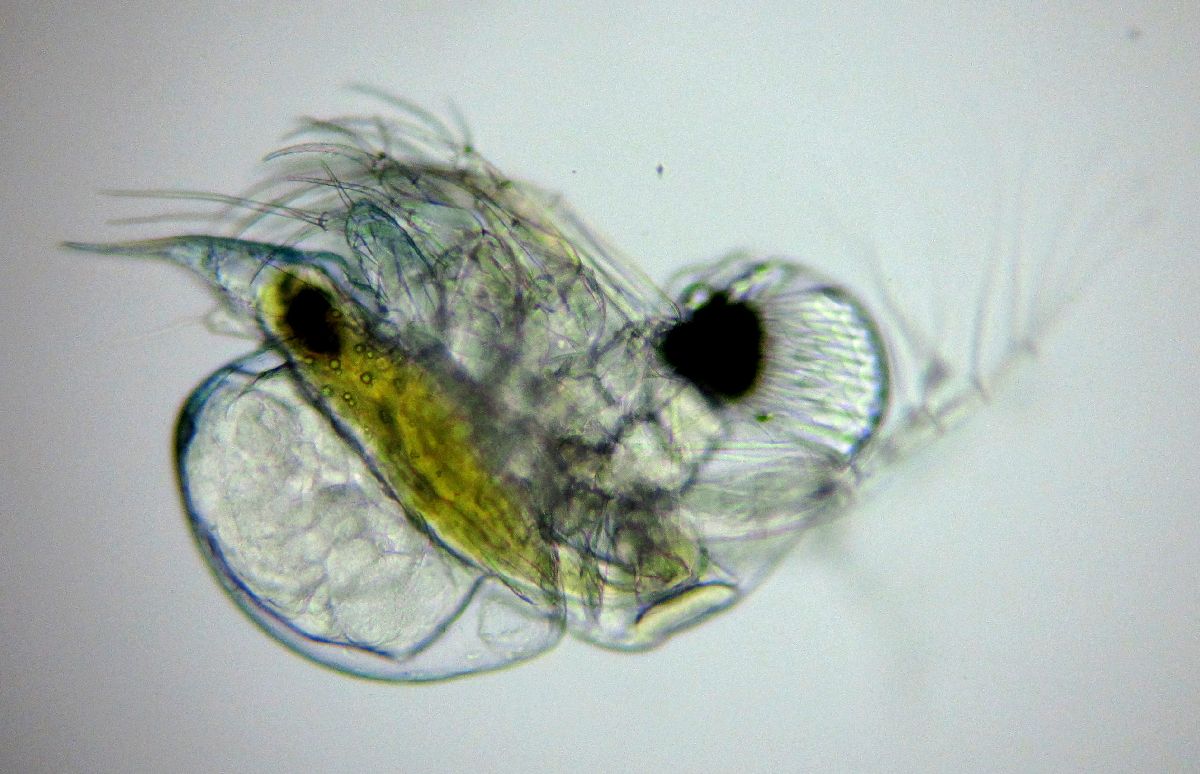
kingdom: Animalia
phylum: Arthropoda
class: Branchiopoda
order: Diplostraca
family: Podonidae
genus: Podon
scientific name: Podon leuckarti
